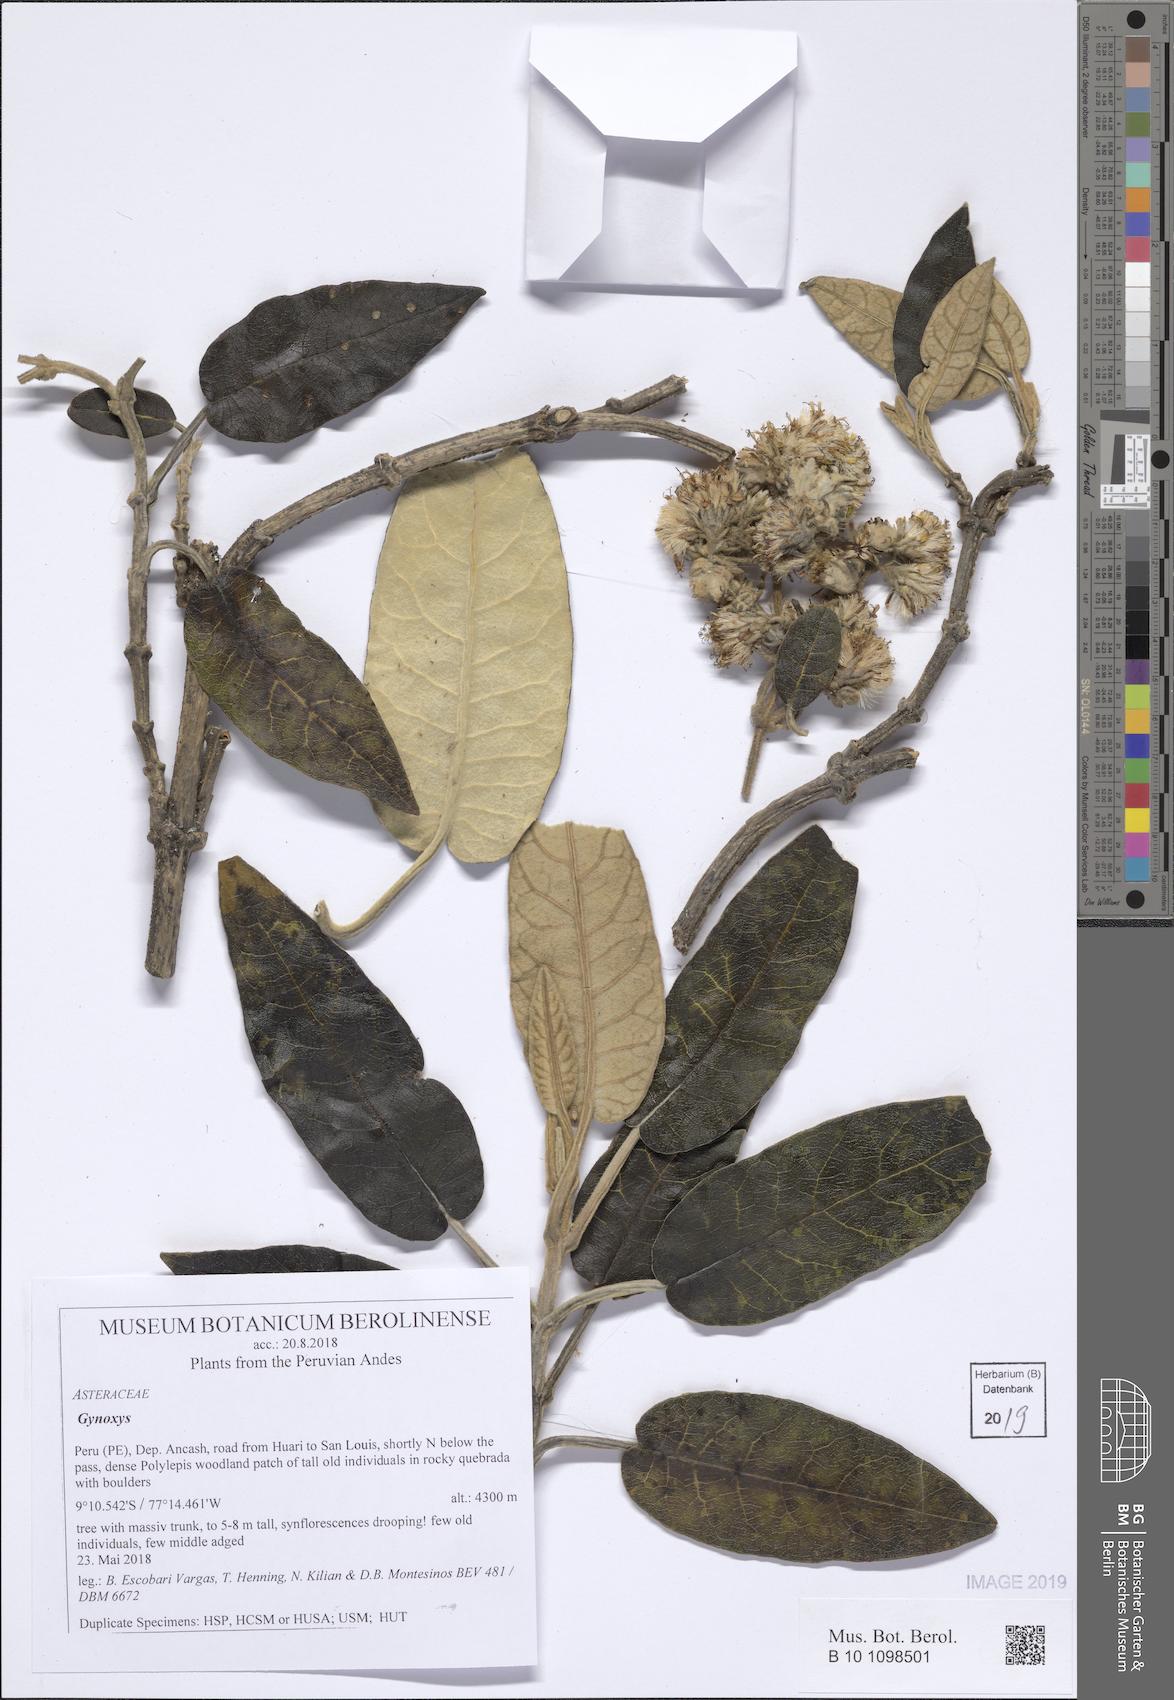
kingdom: Plantae
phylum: Tracheophyta
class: Magnoliopsida
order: Asterales
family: Asteraceae
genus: Gynoxys
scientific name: Gynoxys
